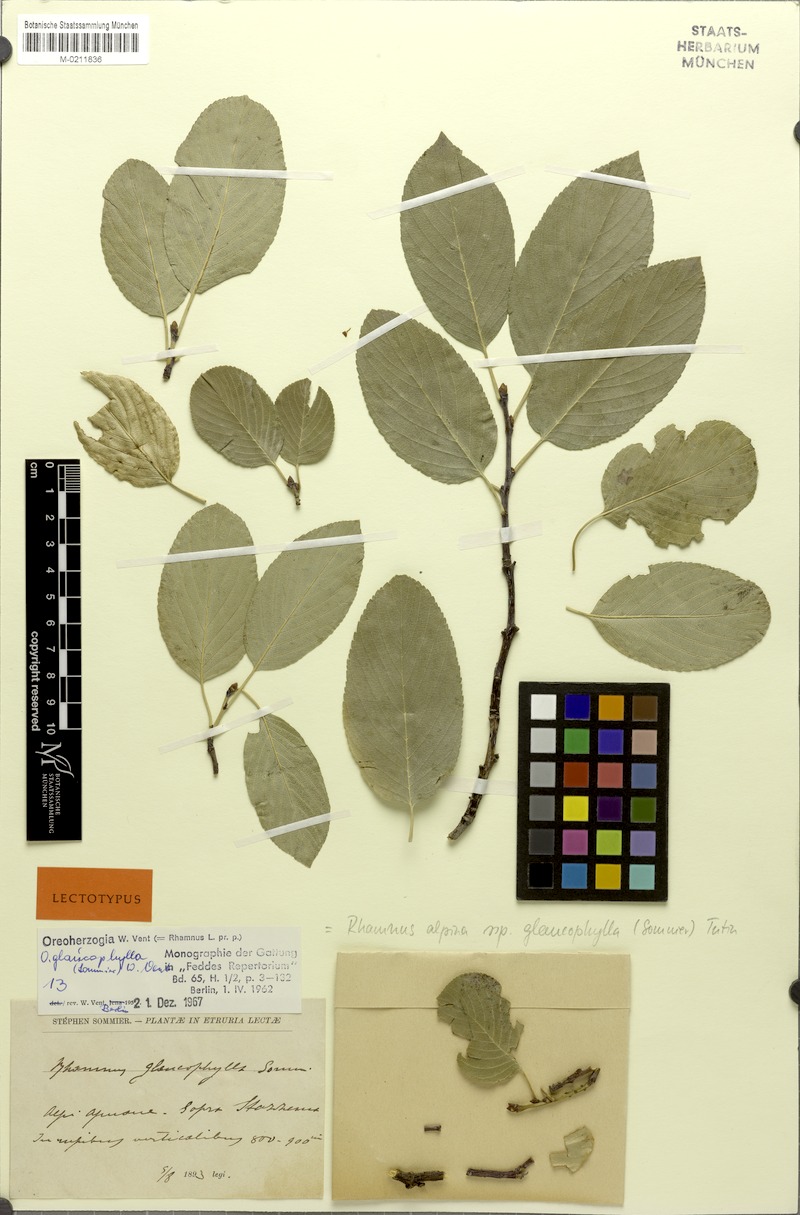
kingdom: Plantae
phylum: Tracheophyta
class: Magnoliopsida
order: Rosales
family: Rhamnaceae
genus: Atadinus
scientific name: Atadinus glaucophyllus
